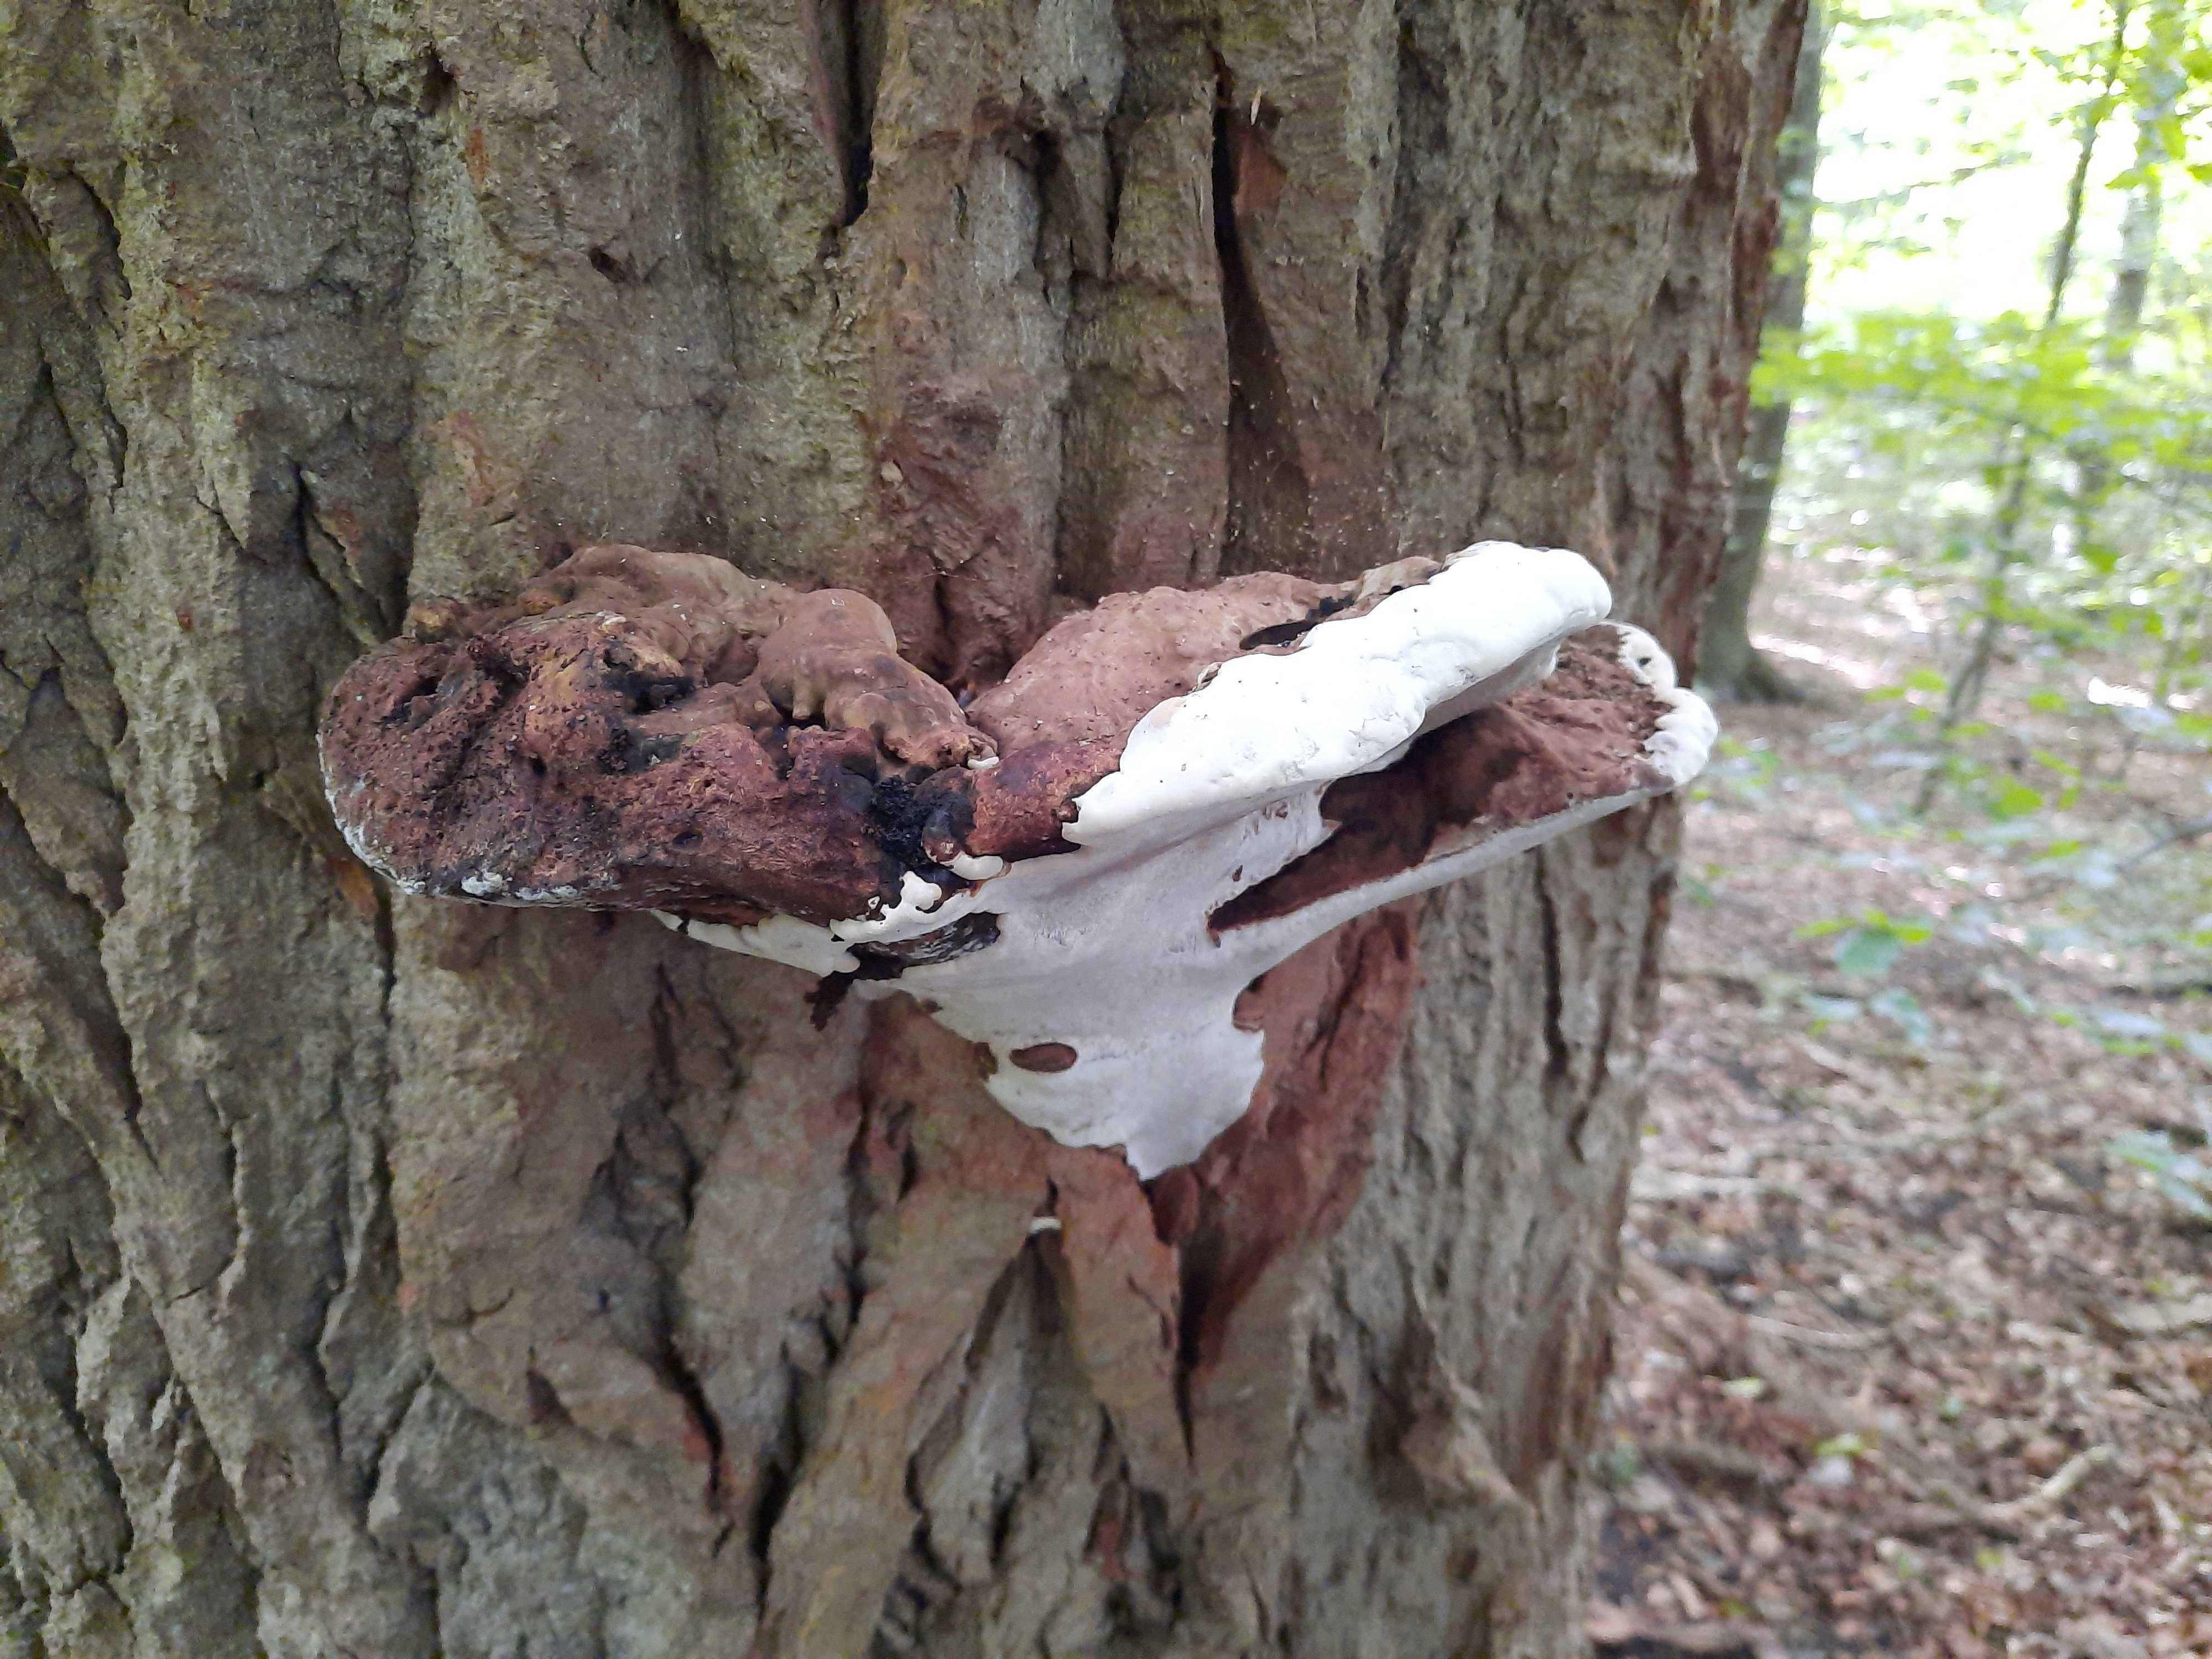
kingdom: Fungi
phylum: Basidiomycota
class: Agaricomycetes
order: Polyporales
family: Polyporaceae
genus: Ganoderma
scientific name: Ganoderma applanatum
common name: flad lakporesvamp
